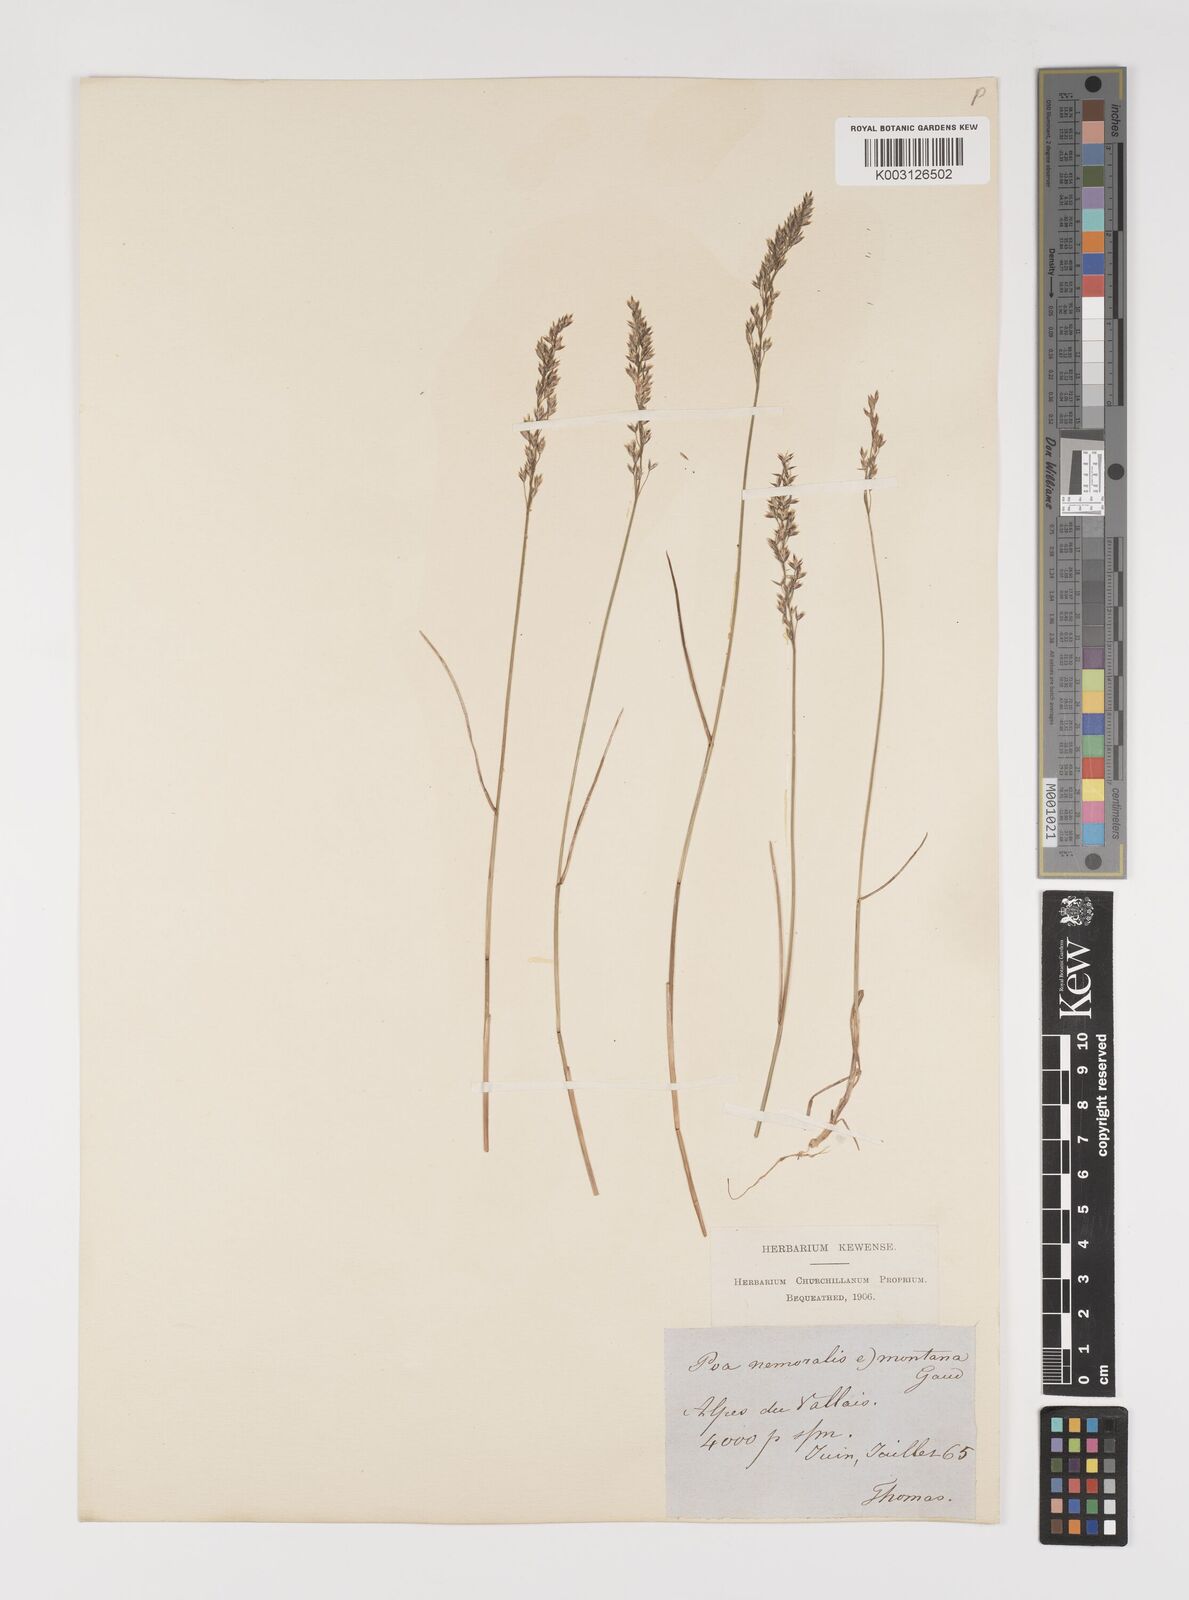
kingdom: Plantae
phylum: Tracheophyta
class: Liliopsida
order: Poales
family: Poaceae
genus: Poa
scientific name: Poa nemoralis
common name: Wood bluegrass
